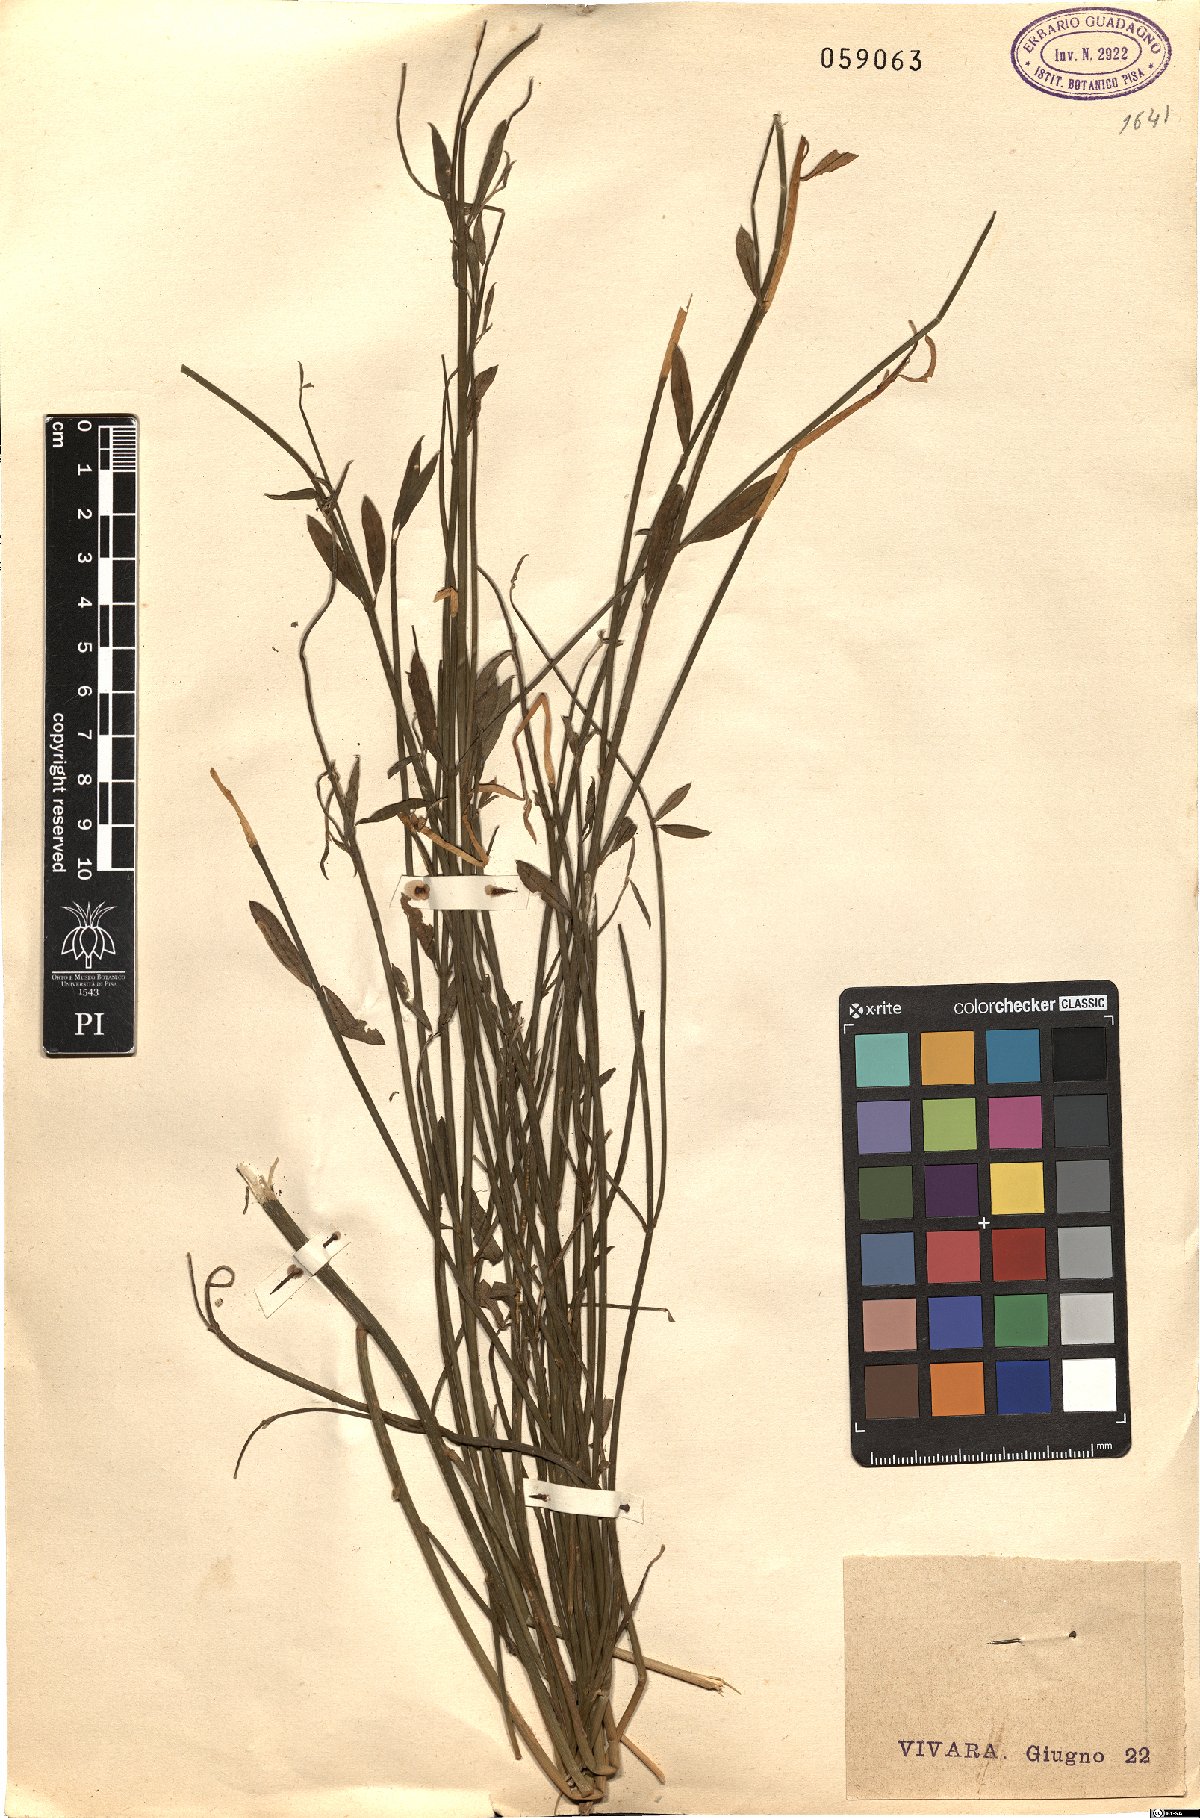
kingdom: Plantae
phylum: Tracheophyta
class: Magnoliopsida
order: Fabales
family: Fabaceae
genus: Spartium
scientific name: Spartium junceum
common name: Spanish broom
